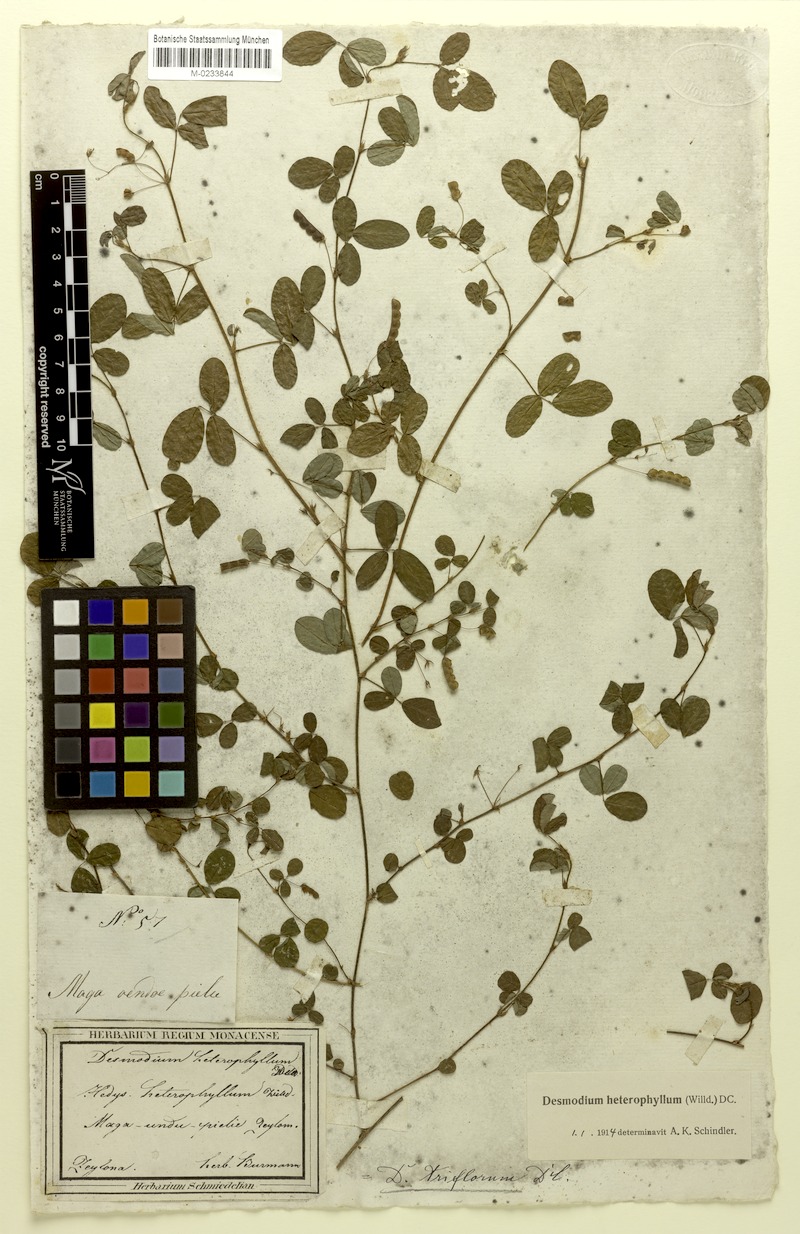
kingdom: Plantae
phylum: Tracheophyta
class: Magnoliopsida
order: Fabales
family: Fabaceae
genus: Grona
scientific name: Grona heterophylla
